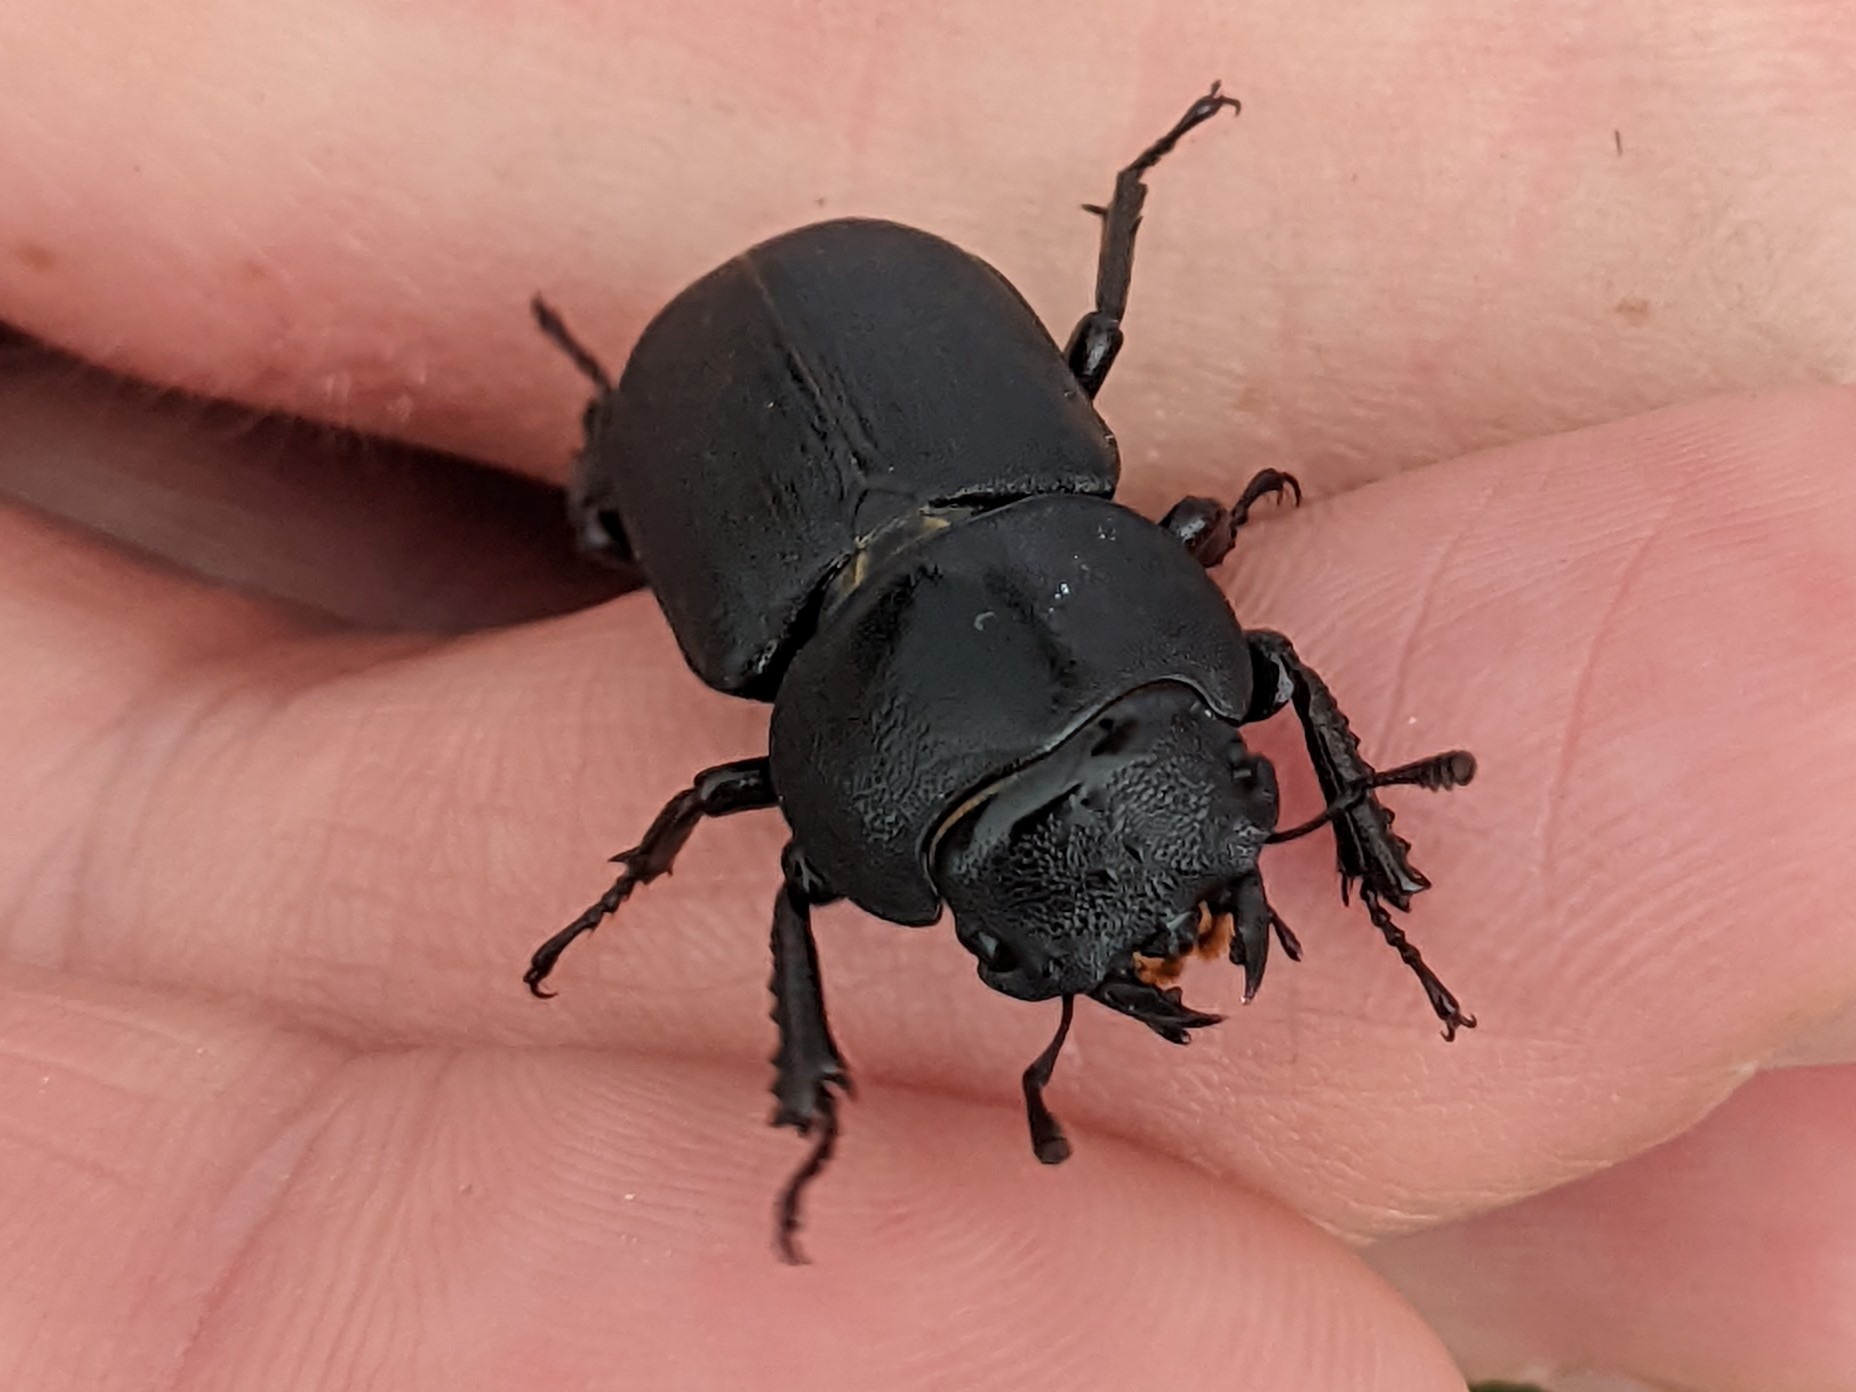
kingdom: Animalia
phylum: Arthropoda
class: Insecta
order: Coleoptera
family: Lucanidae
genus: Dorcus
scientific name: Dorcus parallelipipedus
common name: Bøghjort
